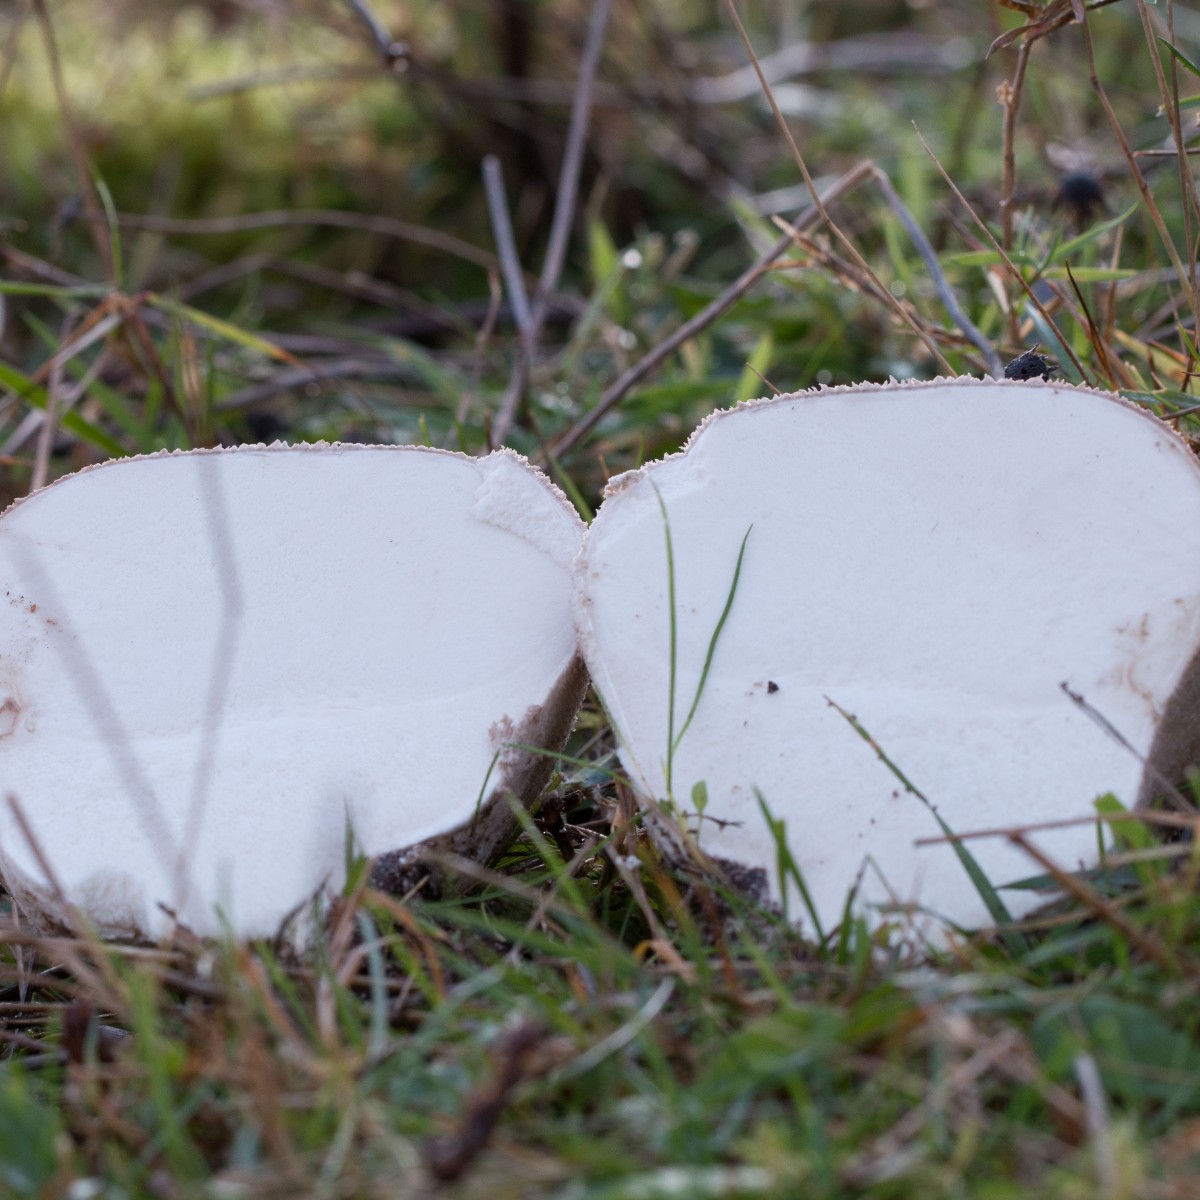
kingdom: Fungi
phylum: Basidiomycota
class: Agaricomycetes
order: Agaricales
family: Lycoperdaceae
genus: Bovistella
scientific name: Bovistella utriformis
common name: skællet støvbold
